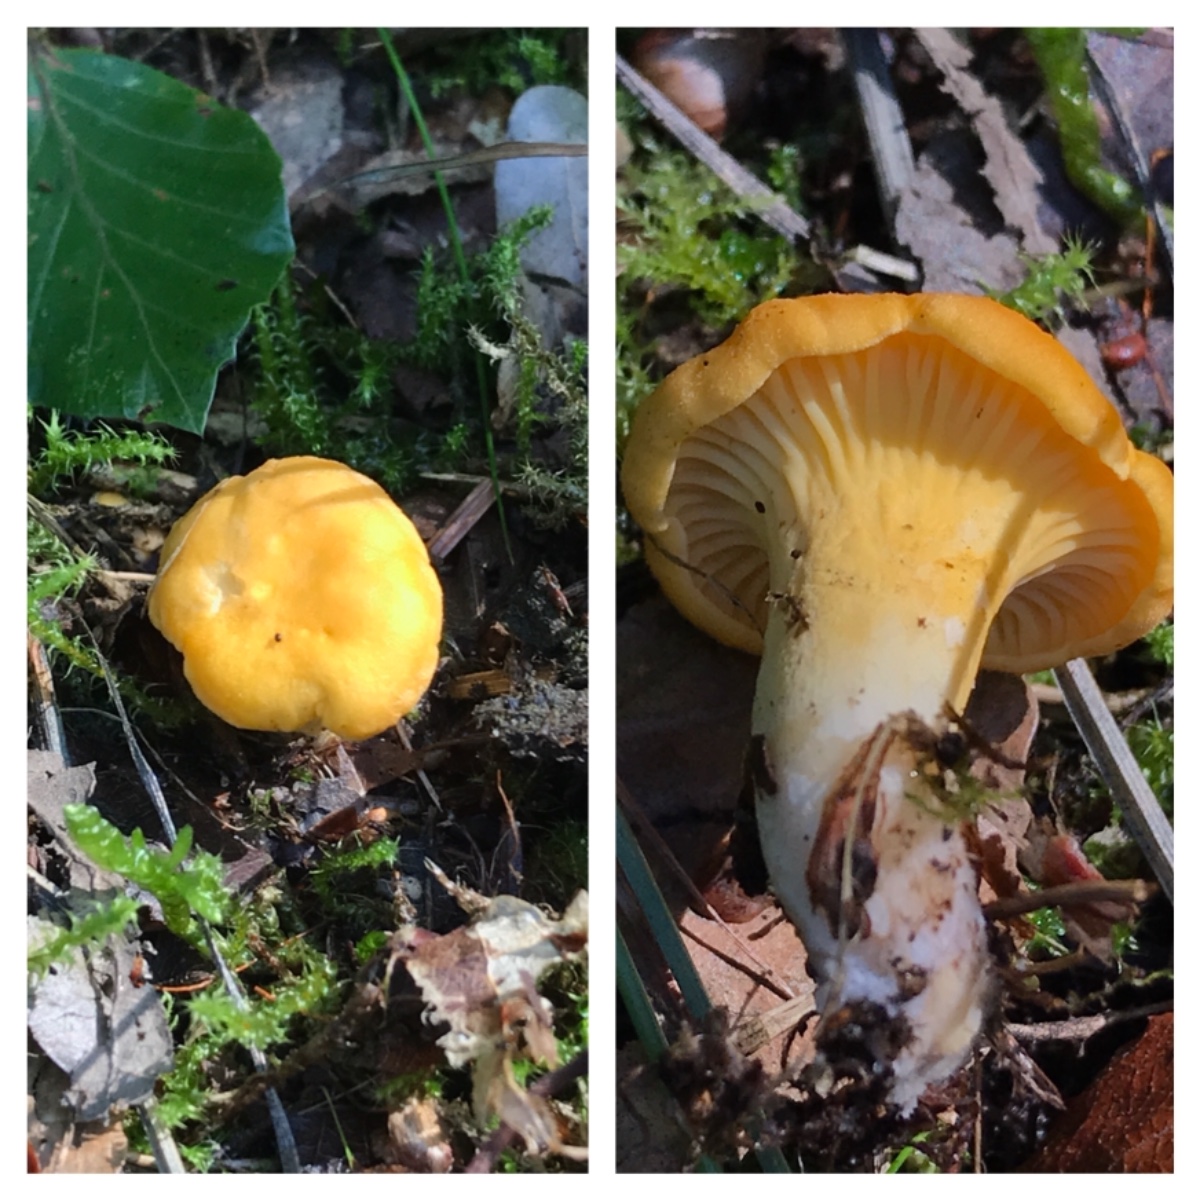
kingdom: Fungi
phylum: Basidiomycota
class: Agaricomycetes
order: Cantharellales
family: Hydnaceae
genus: Cantharellus
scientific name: Cantharellus cibarius
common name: almindelig kantarel
